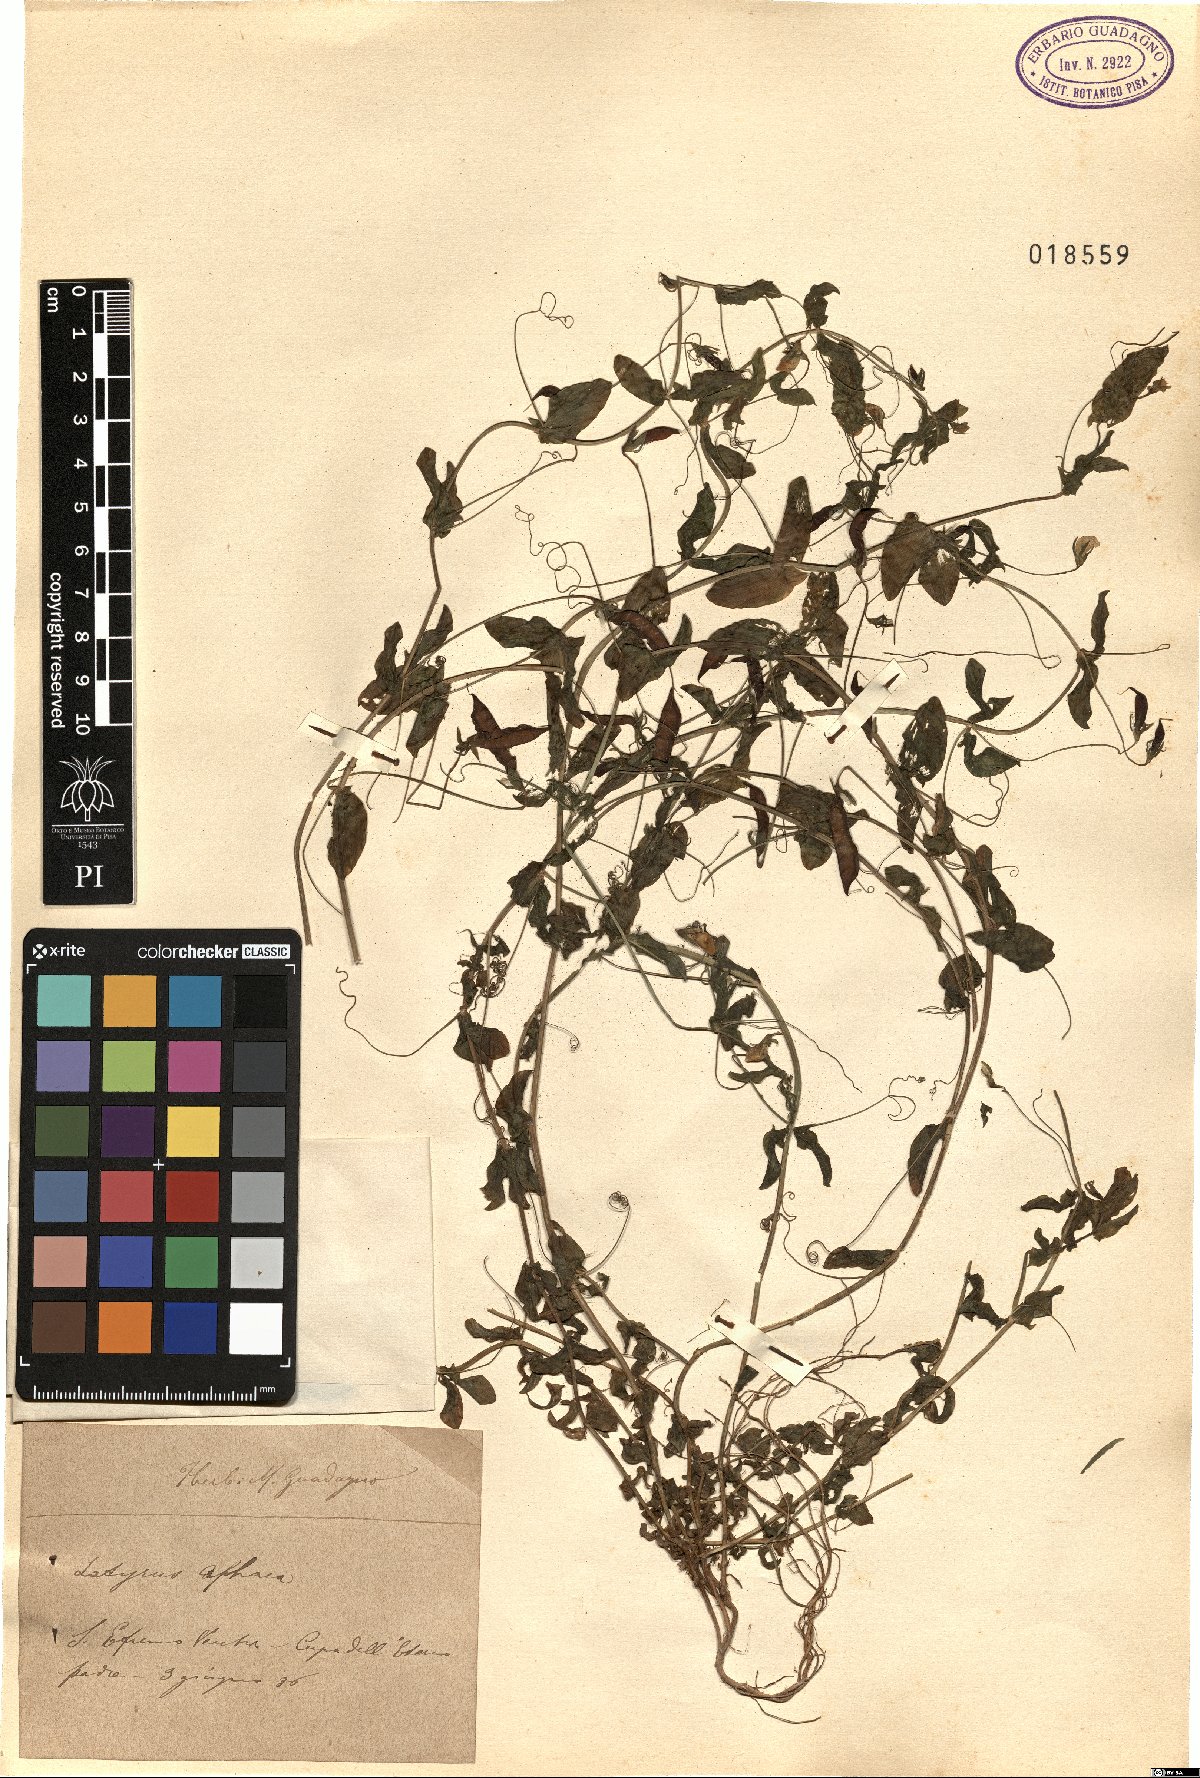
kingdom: Plantae
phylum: Tracheophyta
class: Magnoliopsida
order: Fabales
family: Fabaceae
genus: Lathyrus
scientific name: Lathyrus aphaca
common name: Yellow vetchling
